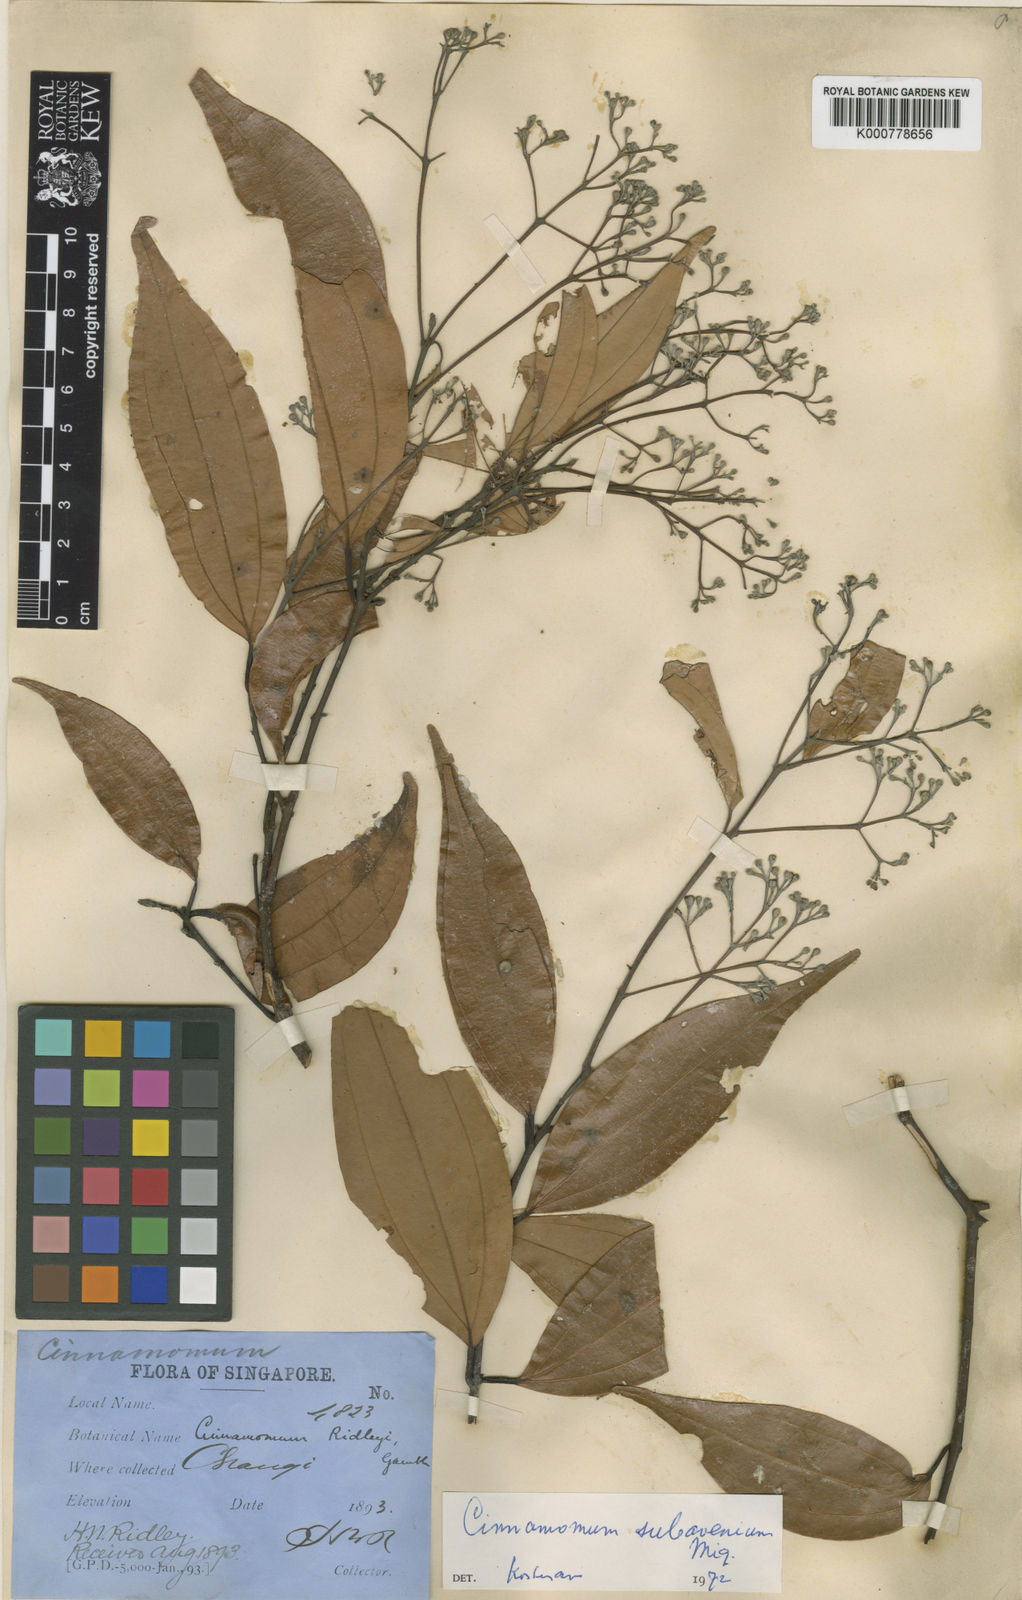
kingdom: Plantae
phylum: Tracheophyta
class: Magnoliopsida
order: Laurales
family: Lauraceae
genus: Cinnamomum
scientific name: Cinnamomum subavenium
